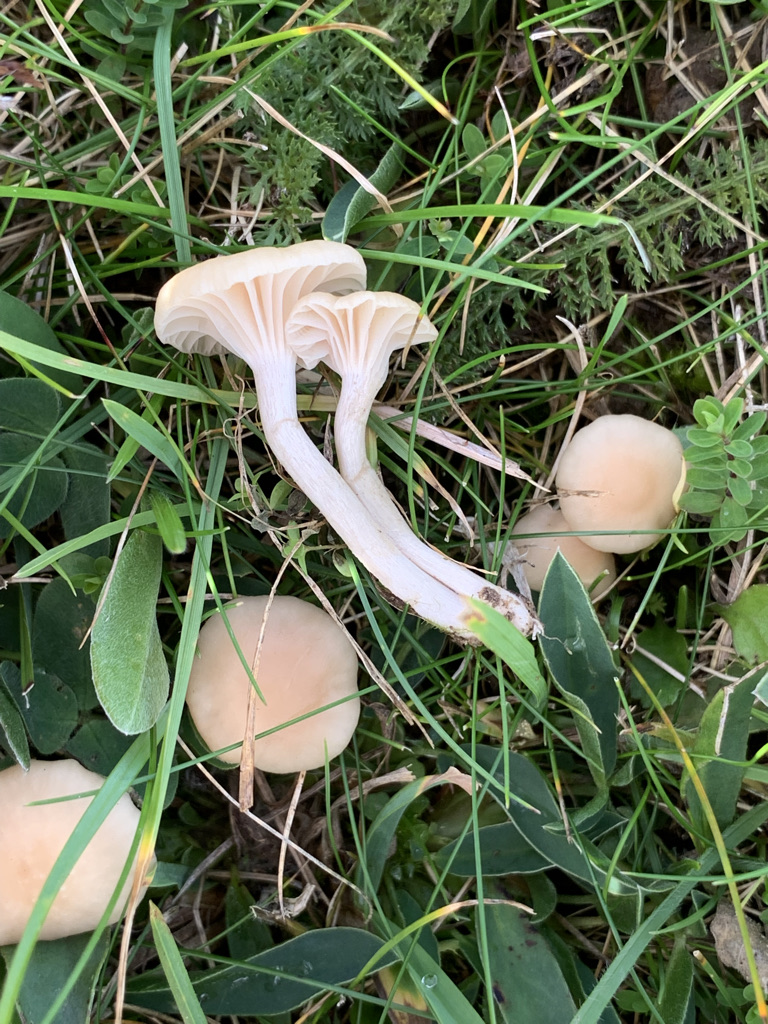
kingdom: Fungi
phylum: Basidiomycota
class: Agaricomycetes
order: Agaricales
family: Hygrophoraceae
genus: Cuphophyllus
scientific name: Cuphophyllus
